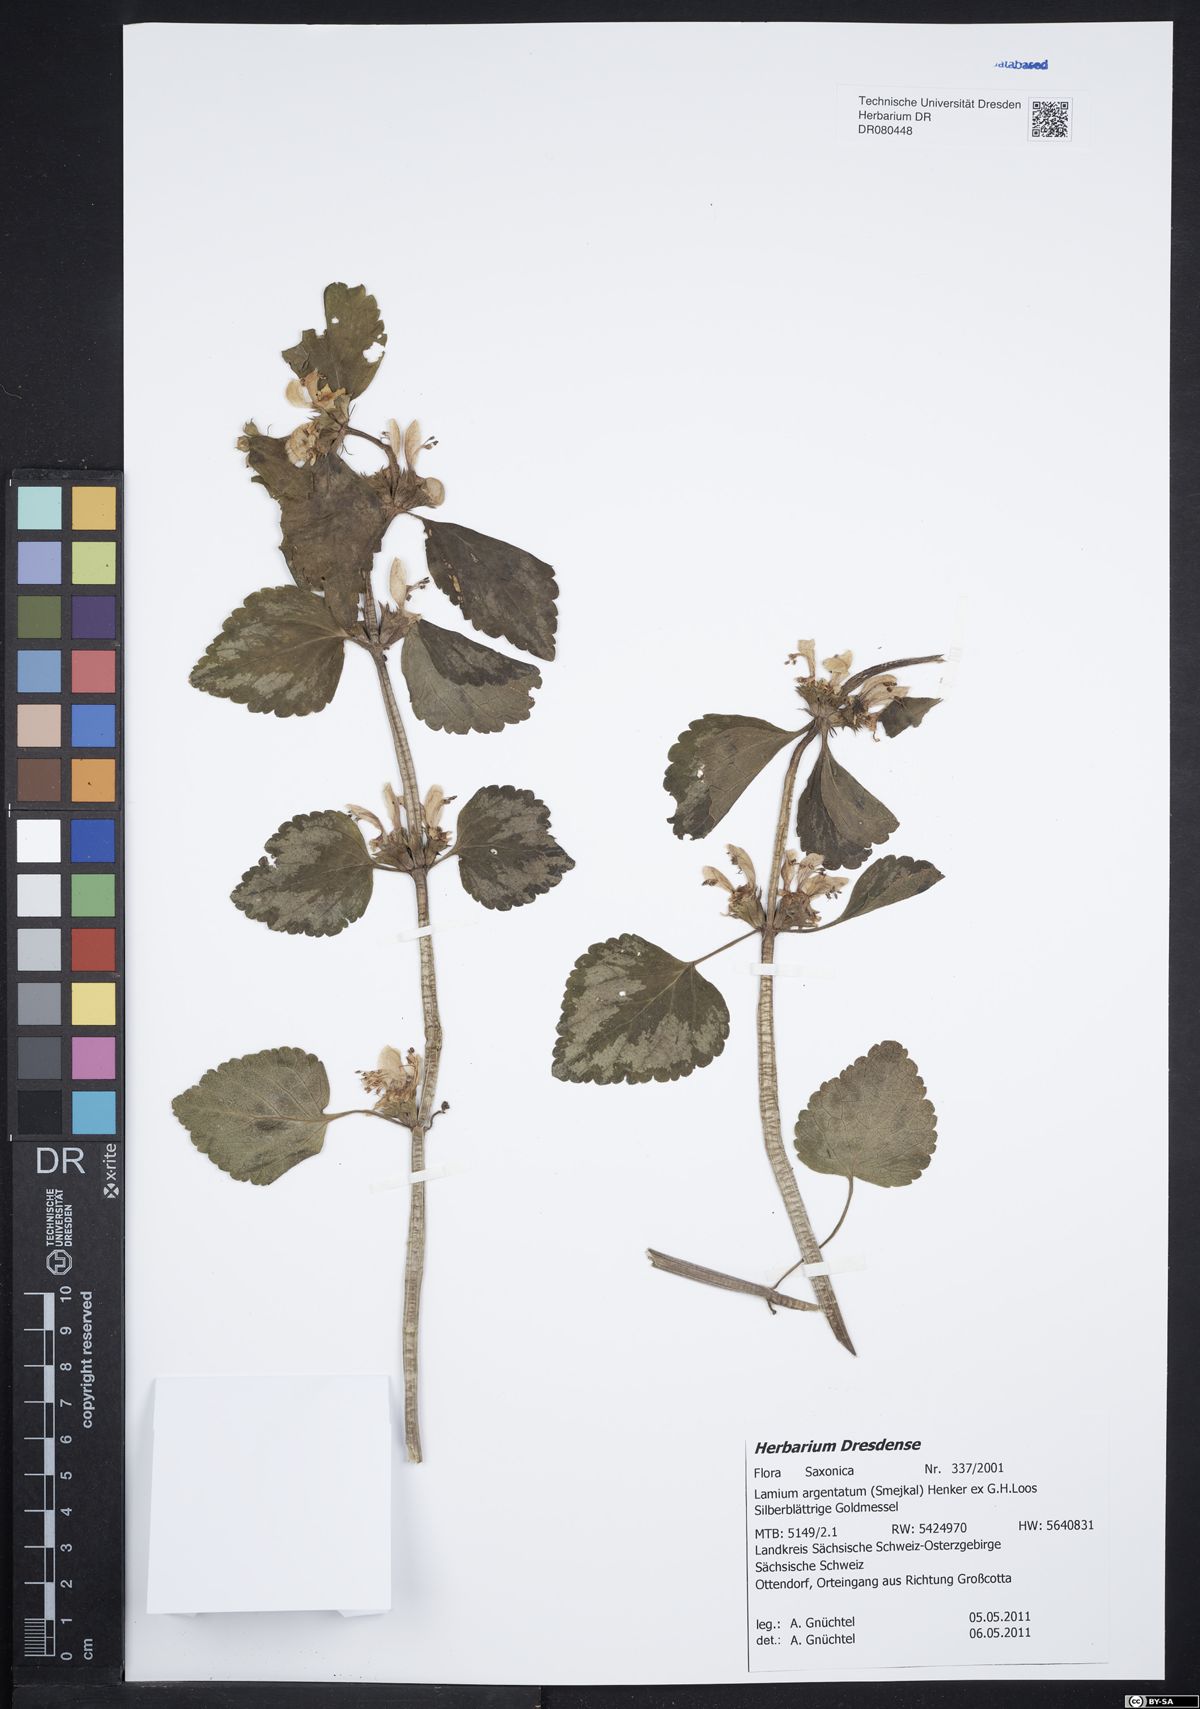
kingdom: Plantae
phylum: Tracheophyta
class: Magnoliopsida
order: Lamiales
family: Lamiaceae
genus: Lamium
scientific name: Lamium galeobdolon
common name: Yellow archangel
